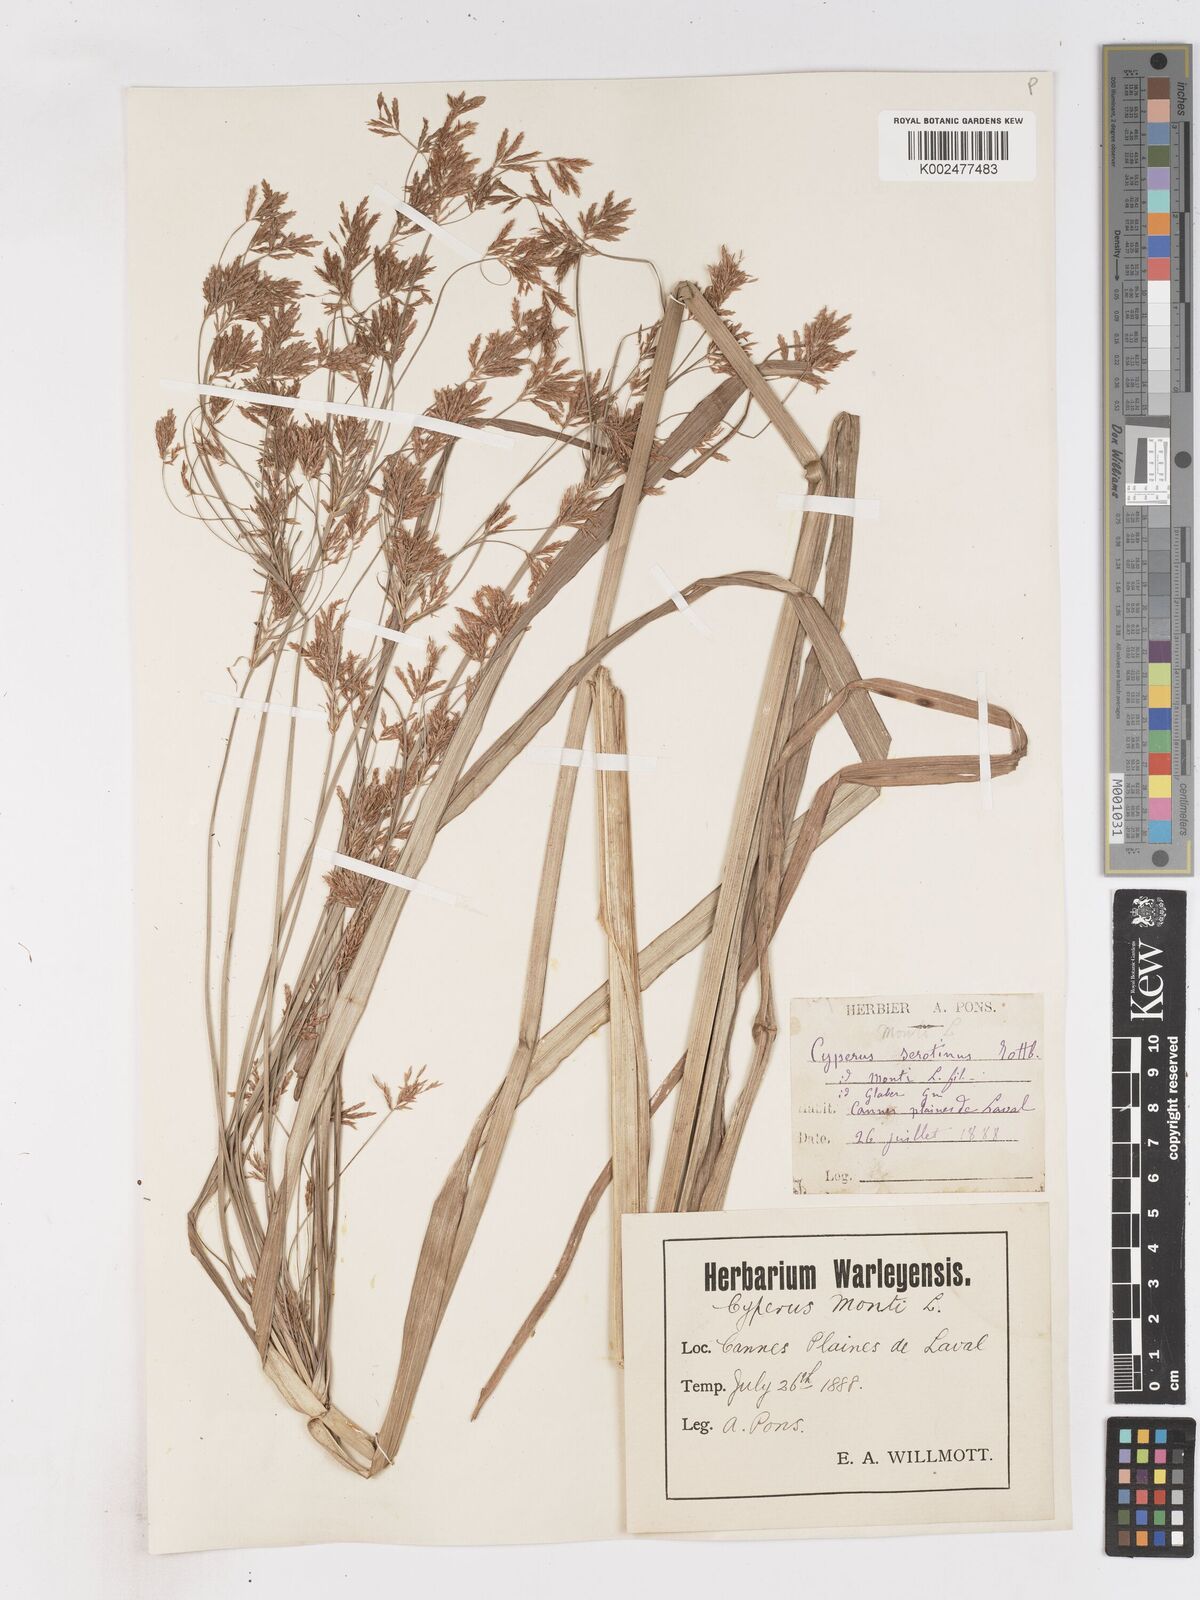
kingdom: Plantae
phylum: Tracheophyta
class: Liliopsida
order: Poales
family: Cyperaceae
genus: Cyperus
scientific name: Cyperus serotinus
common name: Tidalmarsh flatsedge
